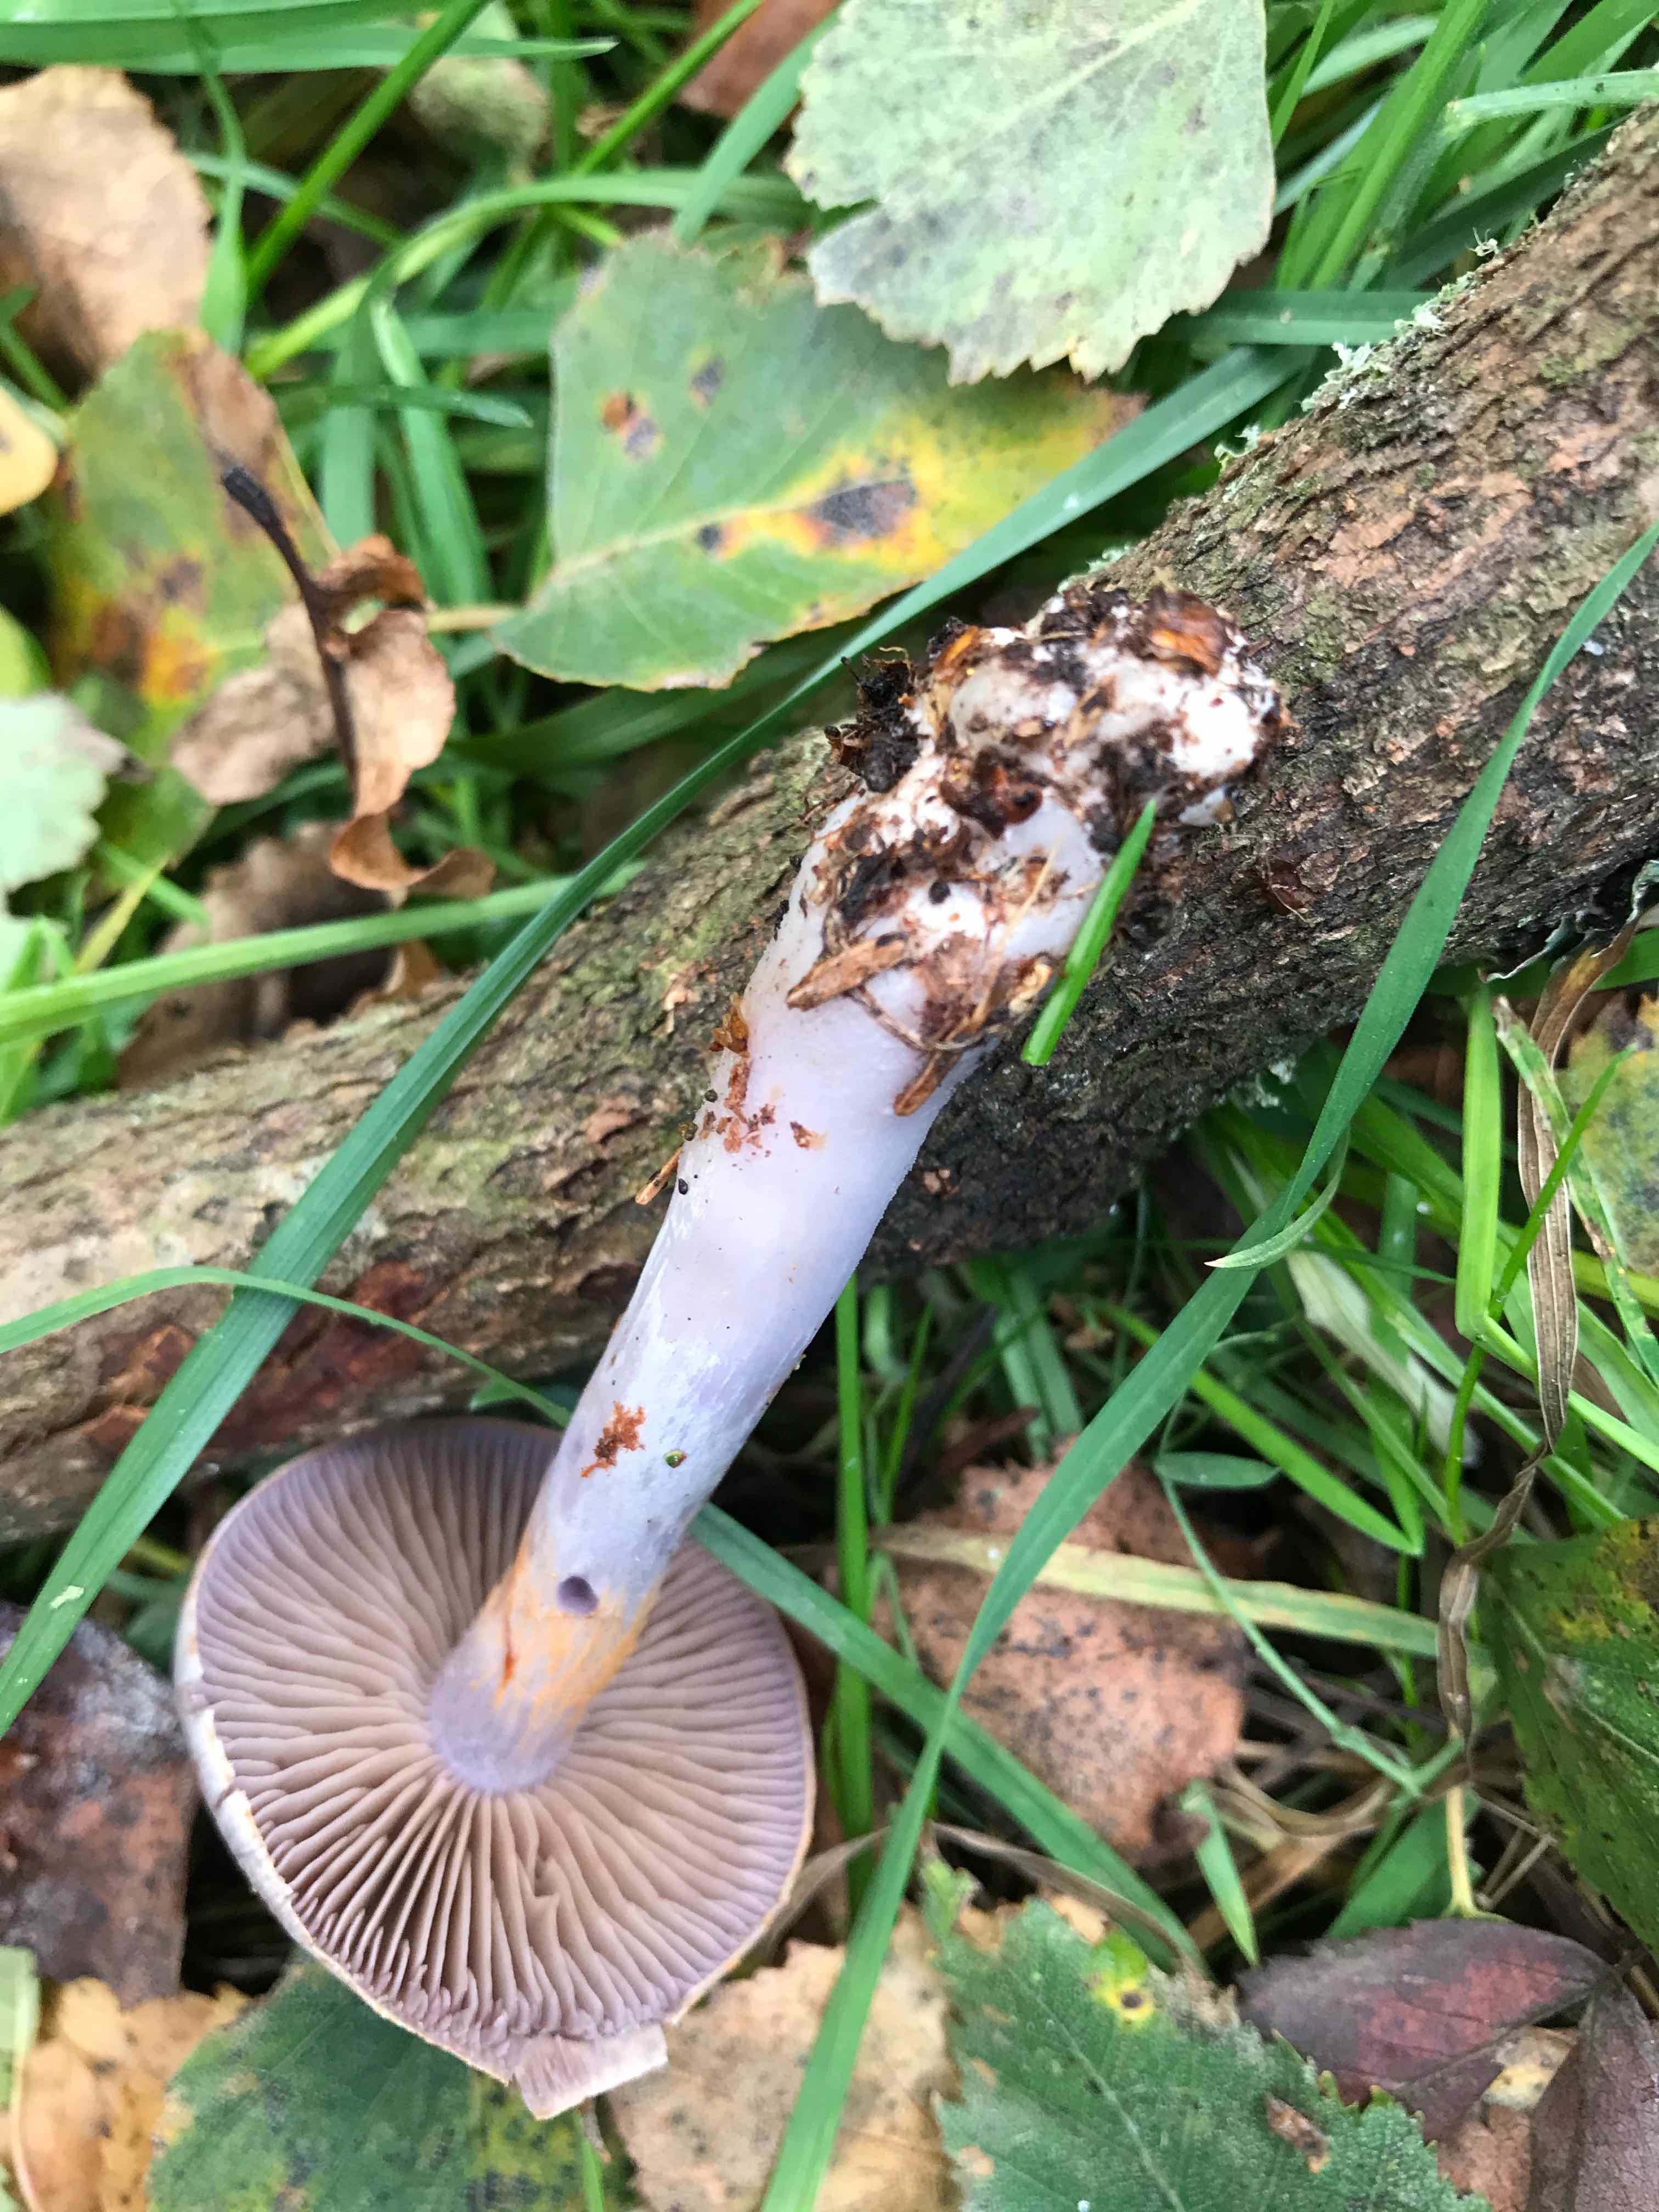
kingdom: Fungi
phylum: Basidiomycota
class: Agaricomycetes
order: Agaricales
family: Cortinariaceae
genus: Cortinarius
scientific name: Cortinarius alboviolaceus
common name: lysviolet slørhat
